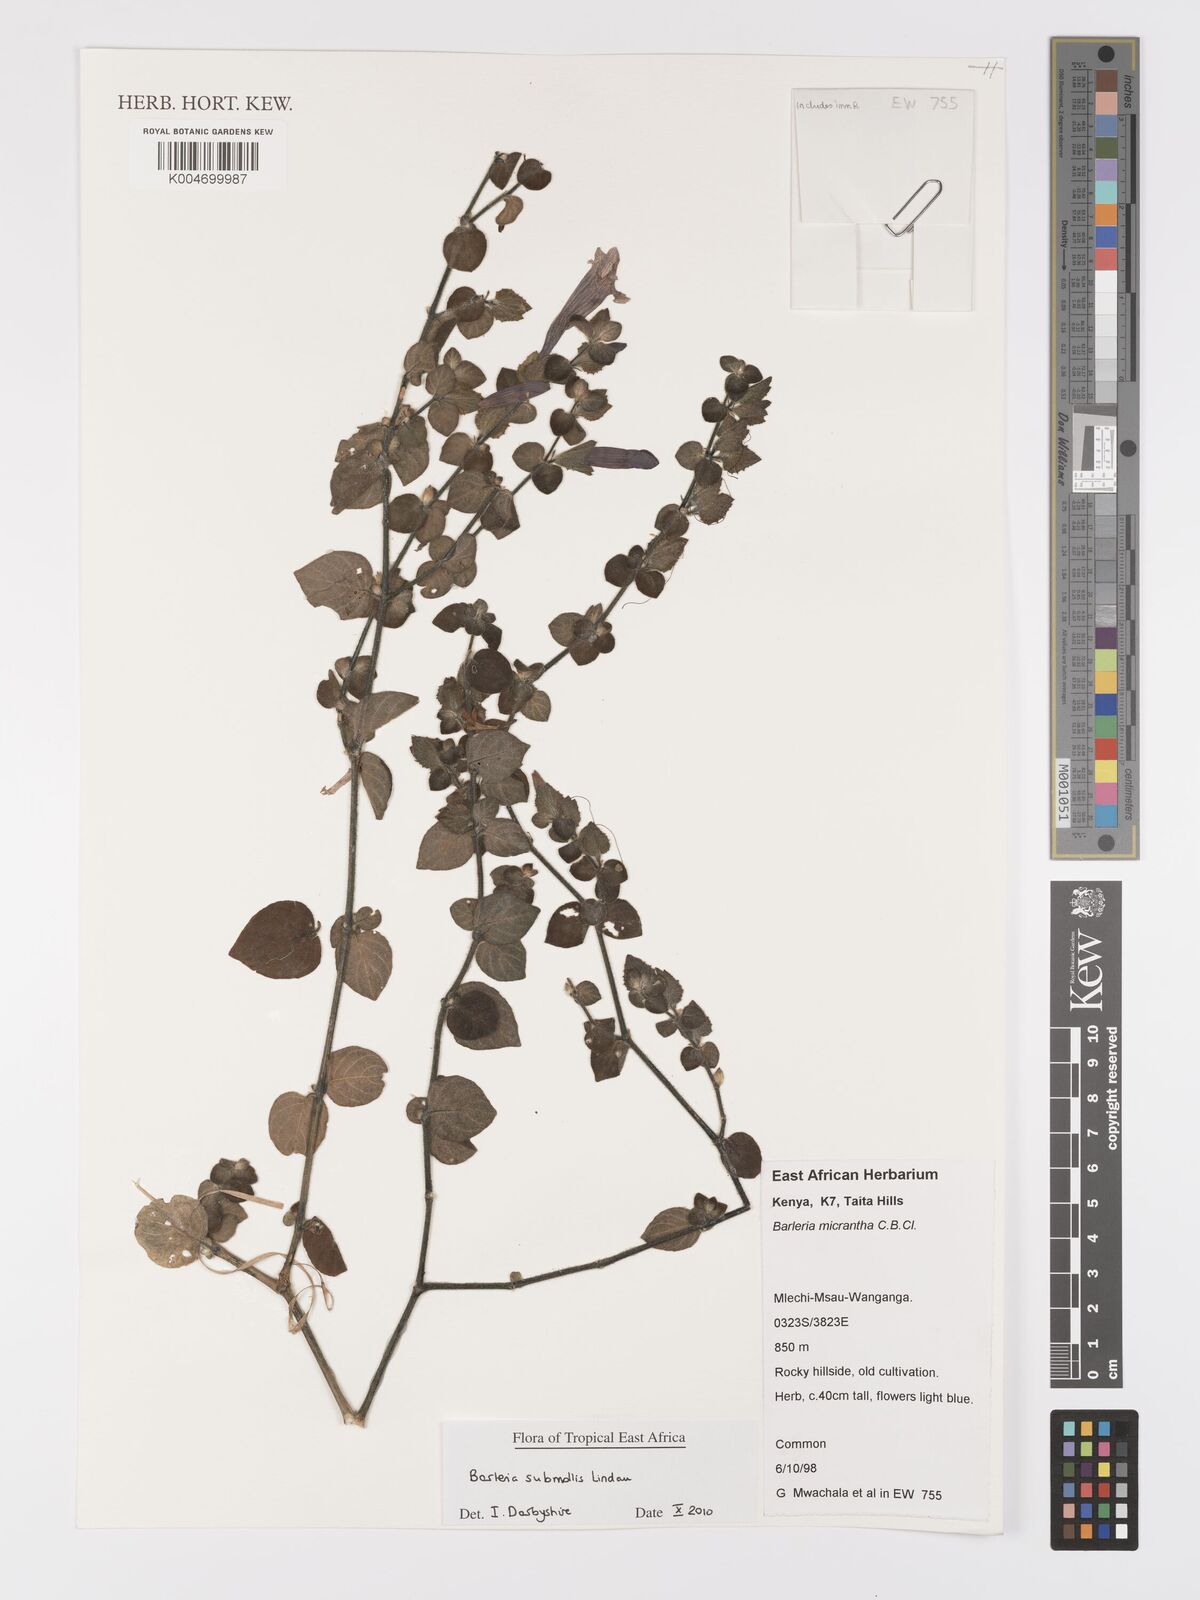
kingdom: Plantae
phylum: Tracheophyta
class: Magnoliopsida
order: Lamiales
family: Acanthaceae
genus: Barleria
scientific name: Barleria submollis
